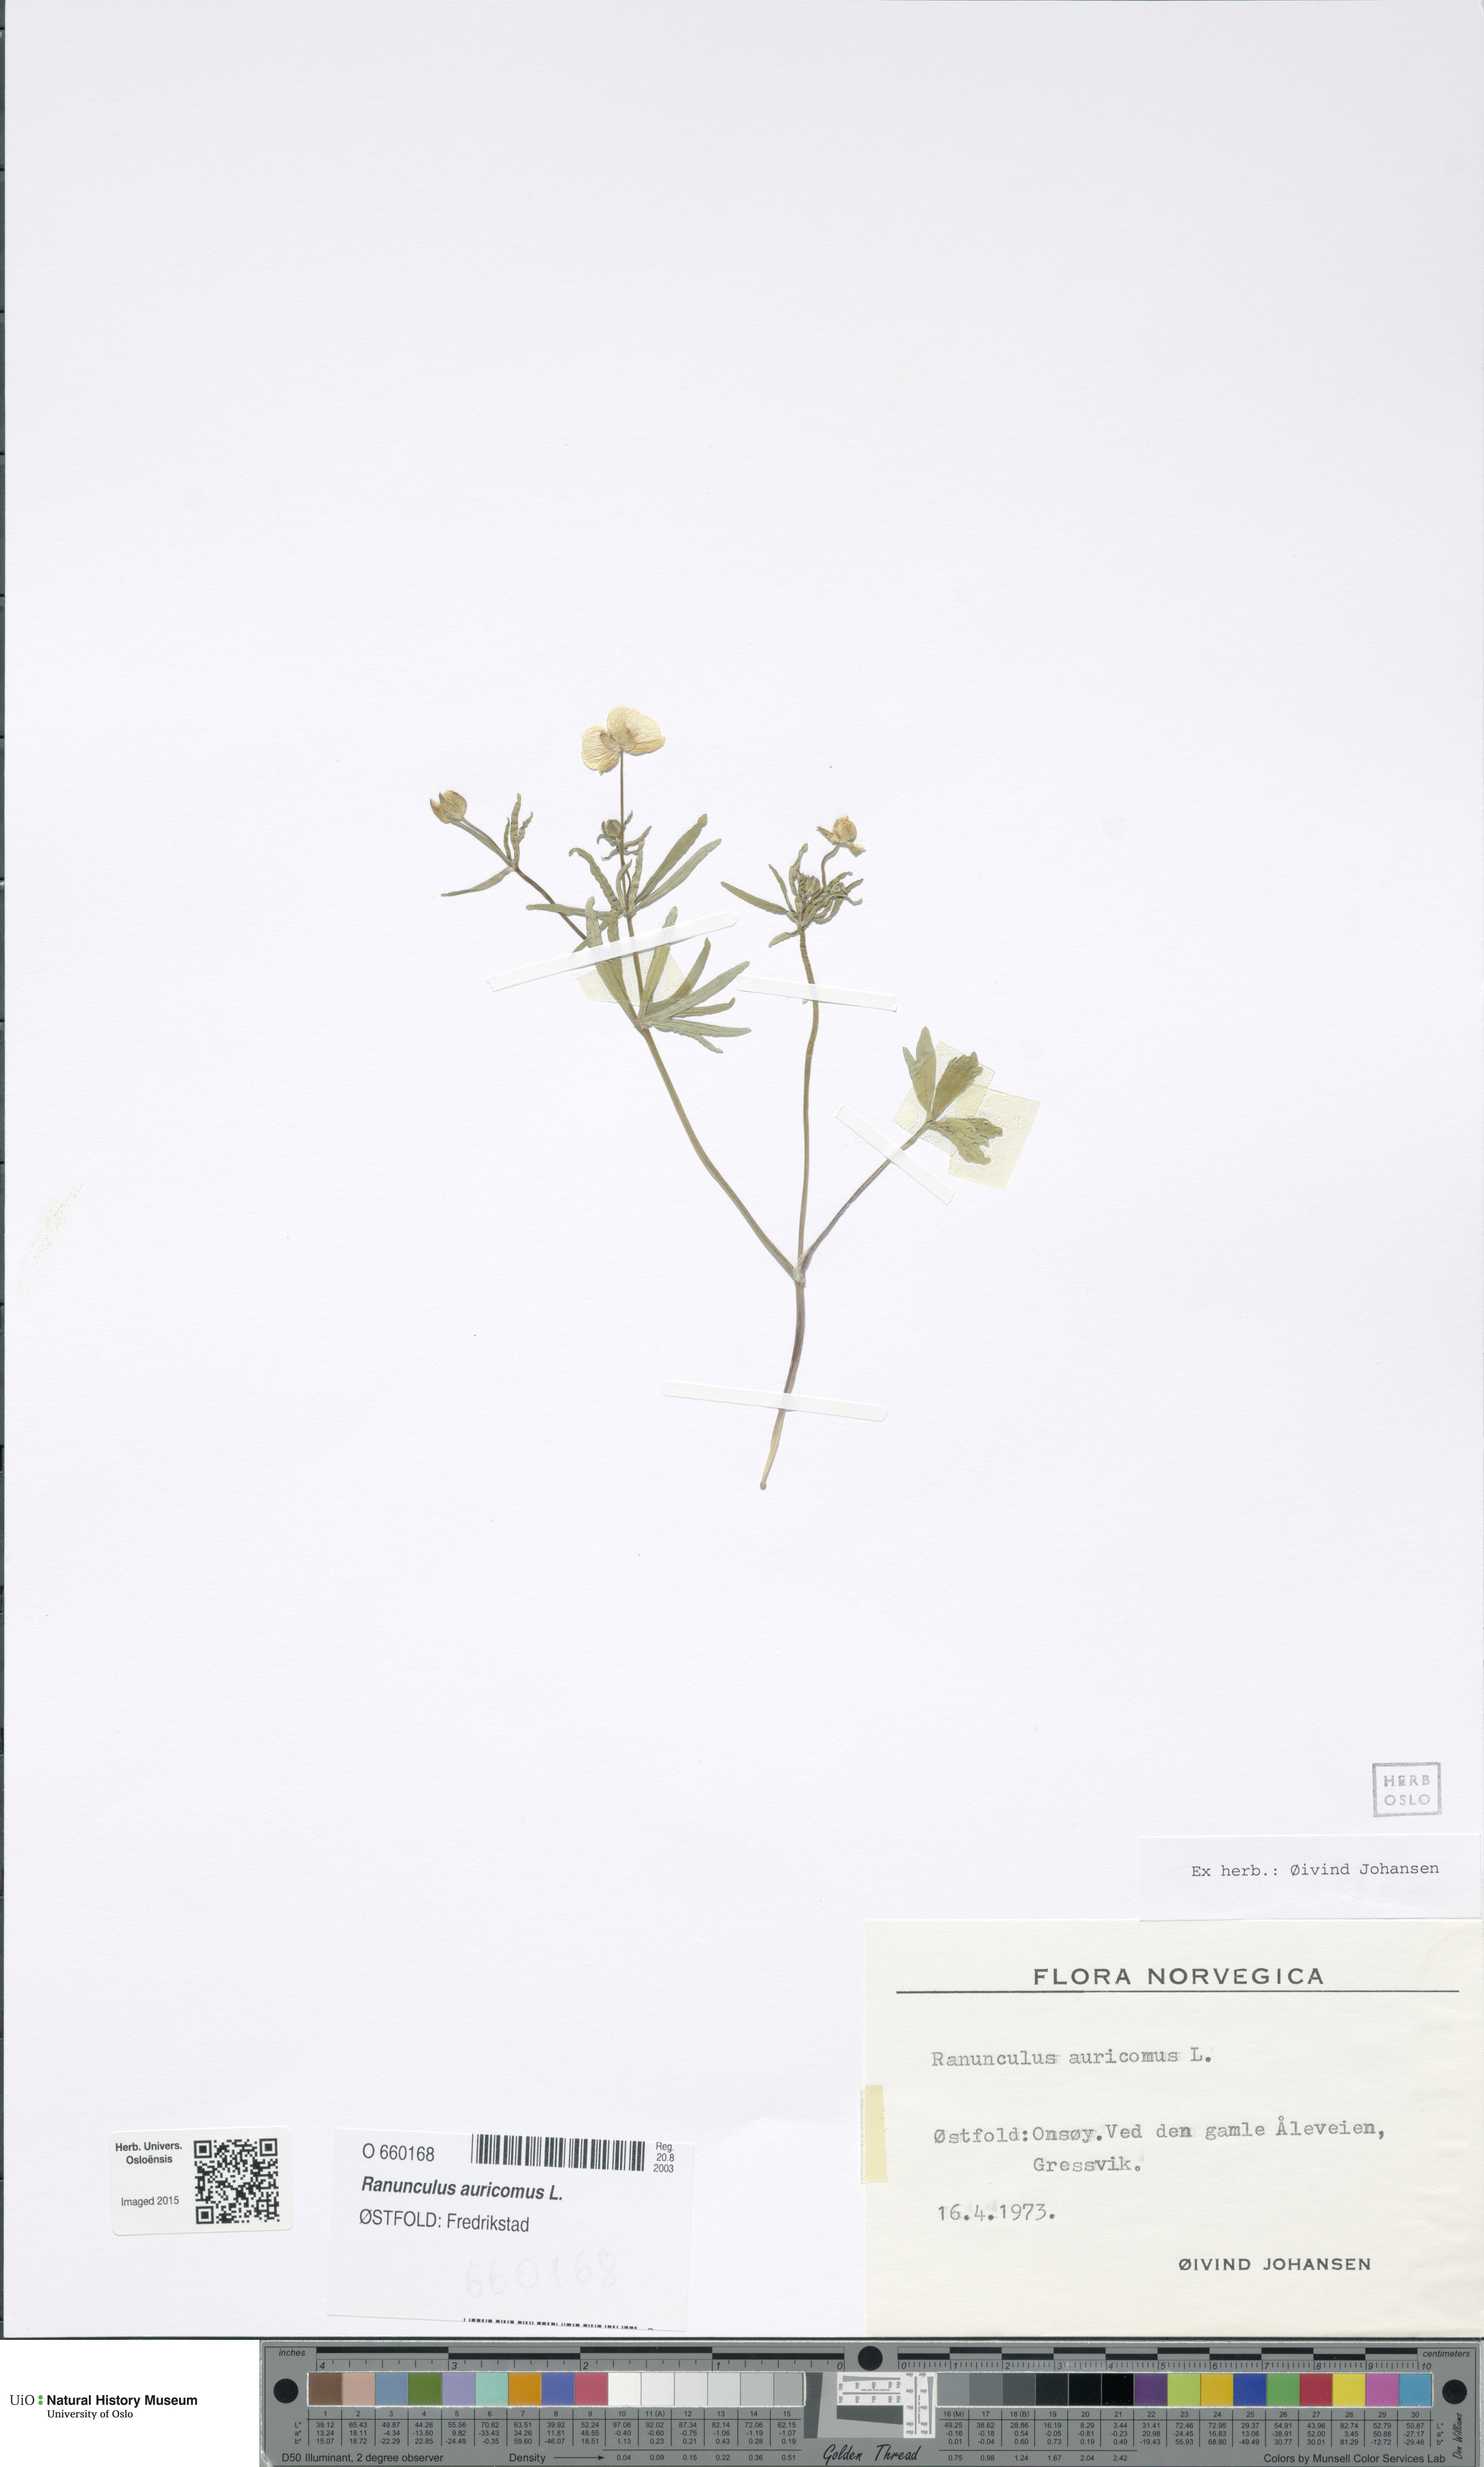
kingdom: Plantae
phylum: Tracheophyta
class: Magnoliopsida
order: Ranunculales
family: Ranunculaceae
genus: Ranunculus
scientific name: Ranunculus auricomus
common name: Goldilocks buttercup
